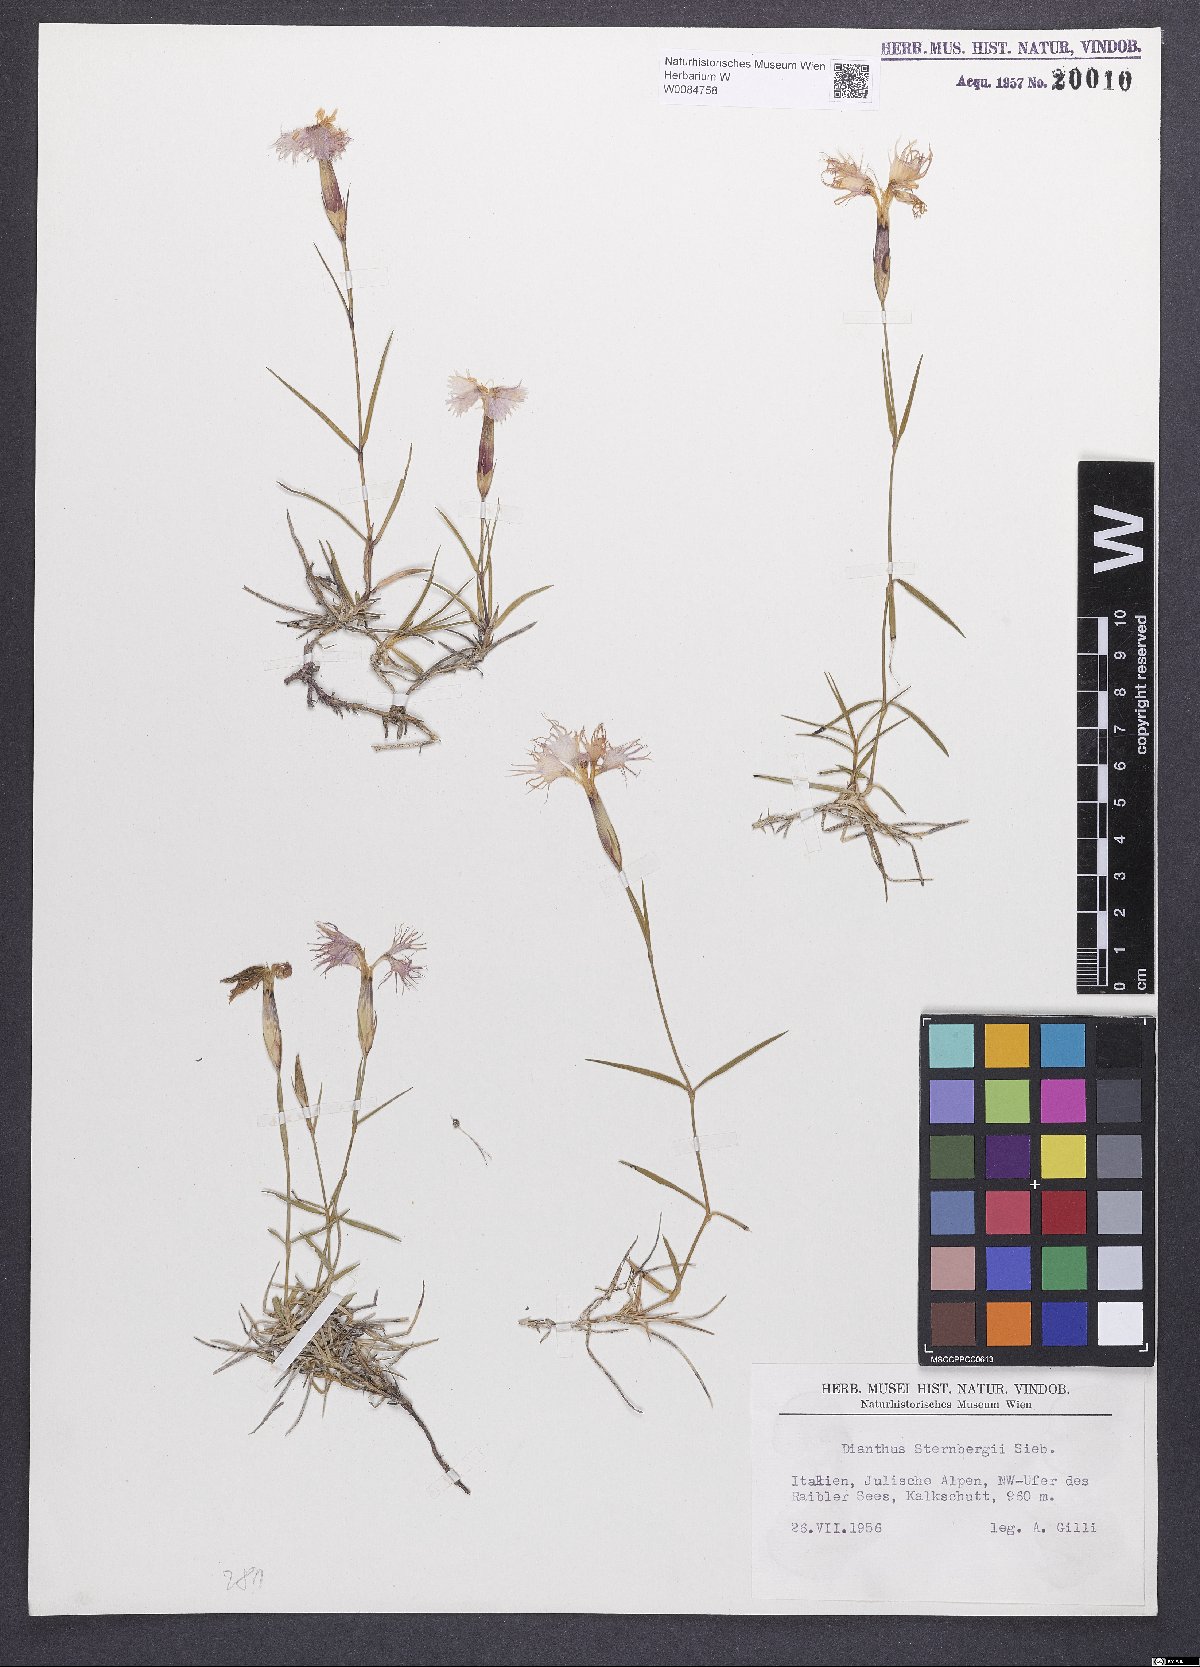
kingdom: Plantae
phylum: Tracheophyta
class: Magnoliopsida
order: Caryophyllales
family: Caryophyllaceae
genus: Dianthus
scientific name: Dianthus monspessulanus
